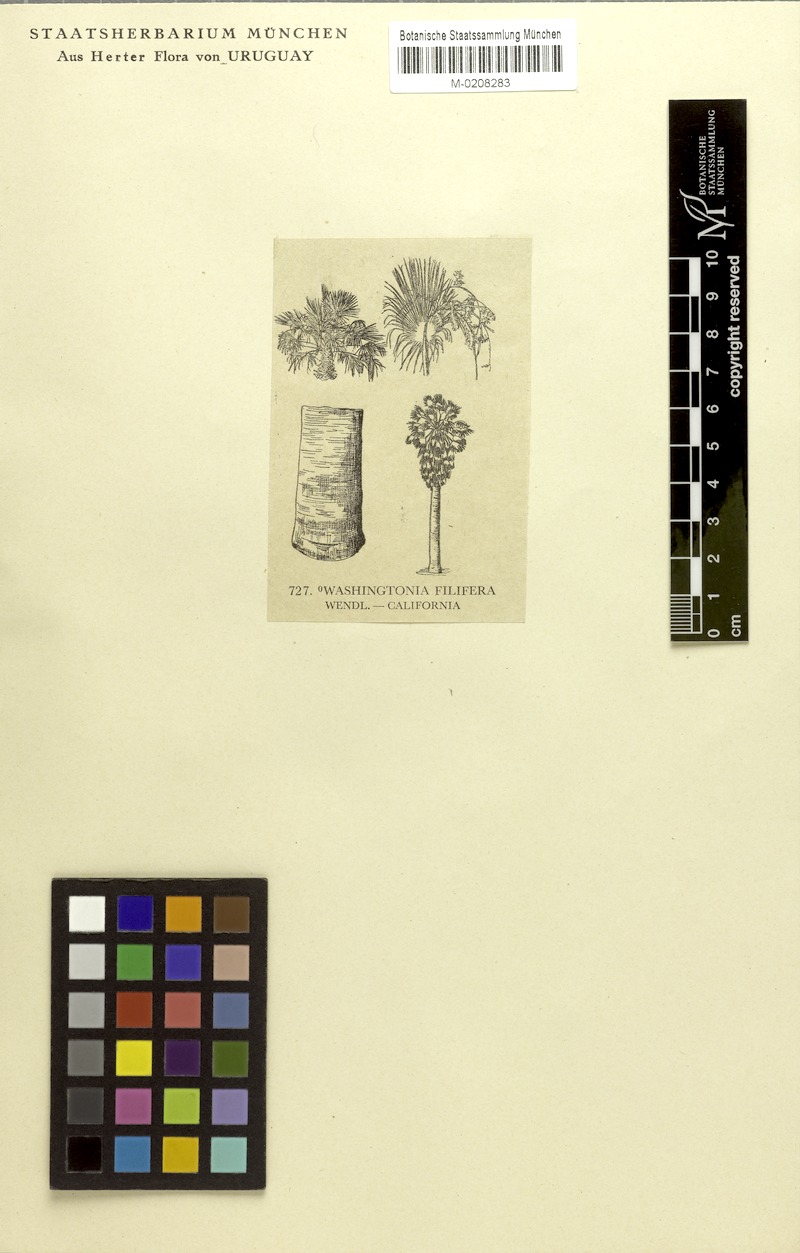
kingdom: Plantae
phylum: Tracheophyta
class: Liliopsida
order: Arecales
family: Arecaceae
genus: Washingtonia
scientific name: Washingtonia filifera
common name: California fan palm
